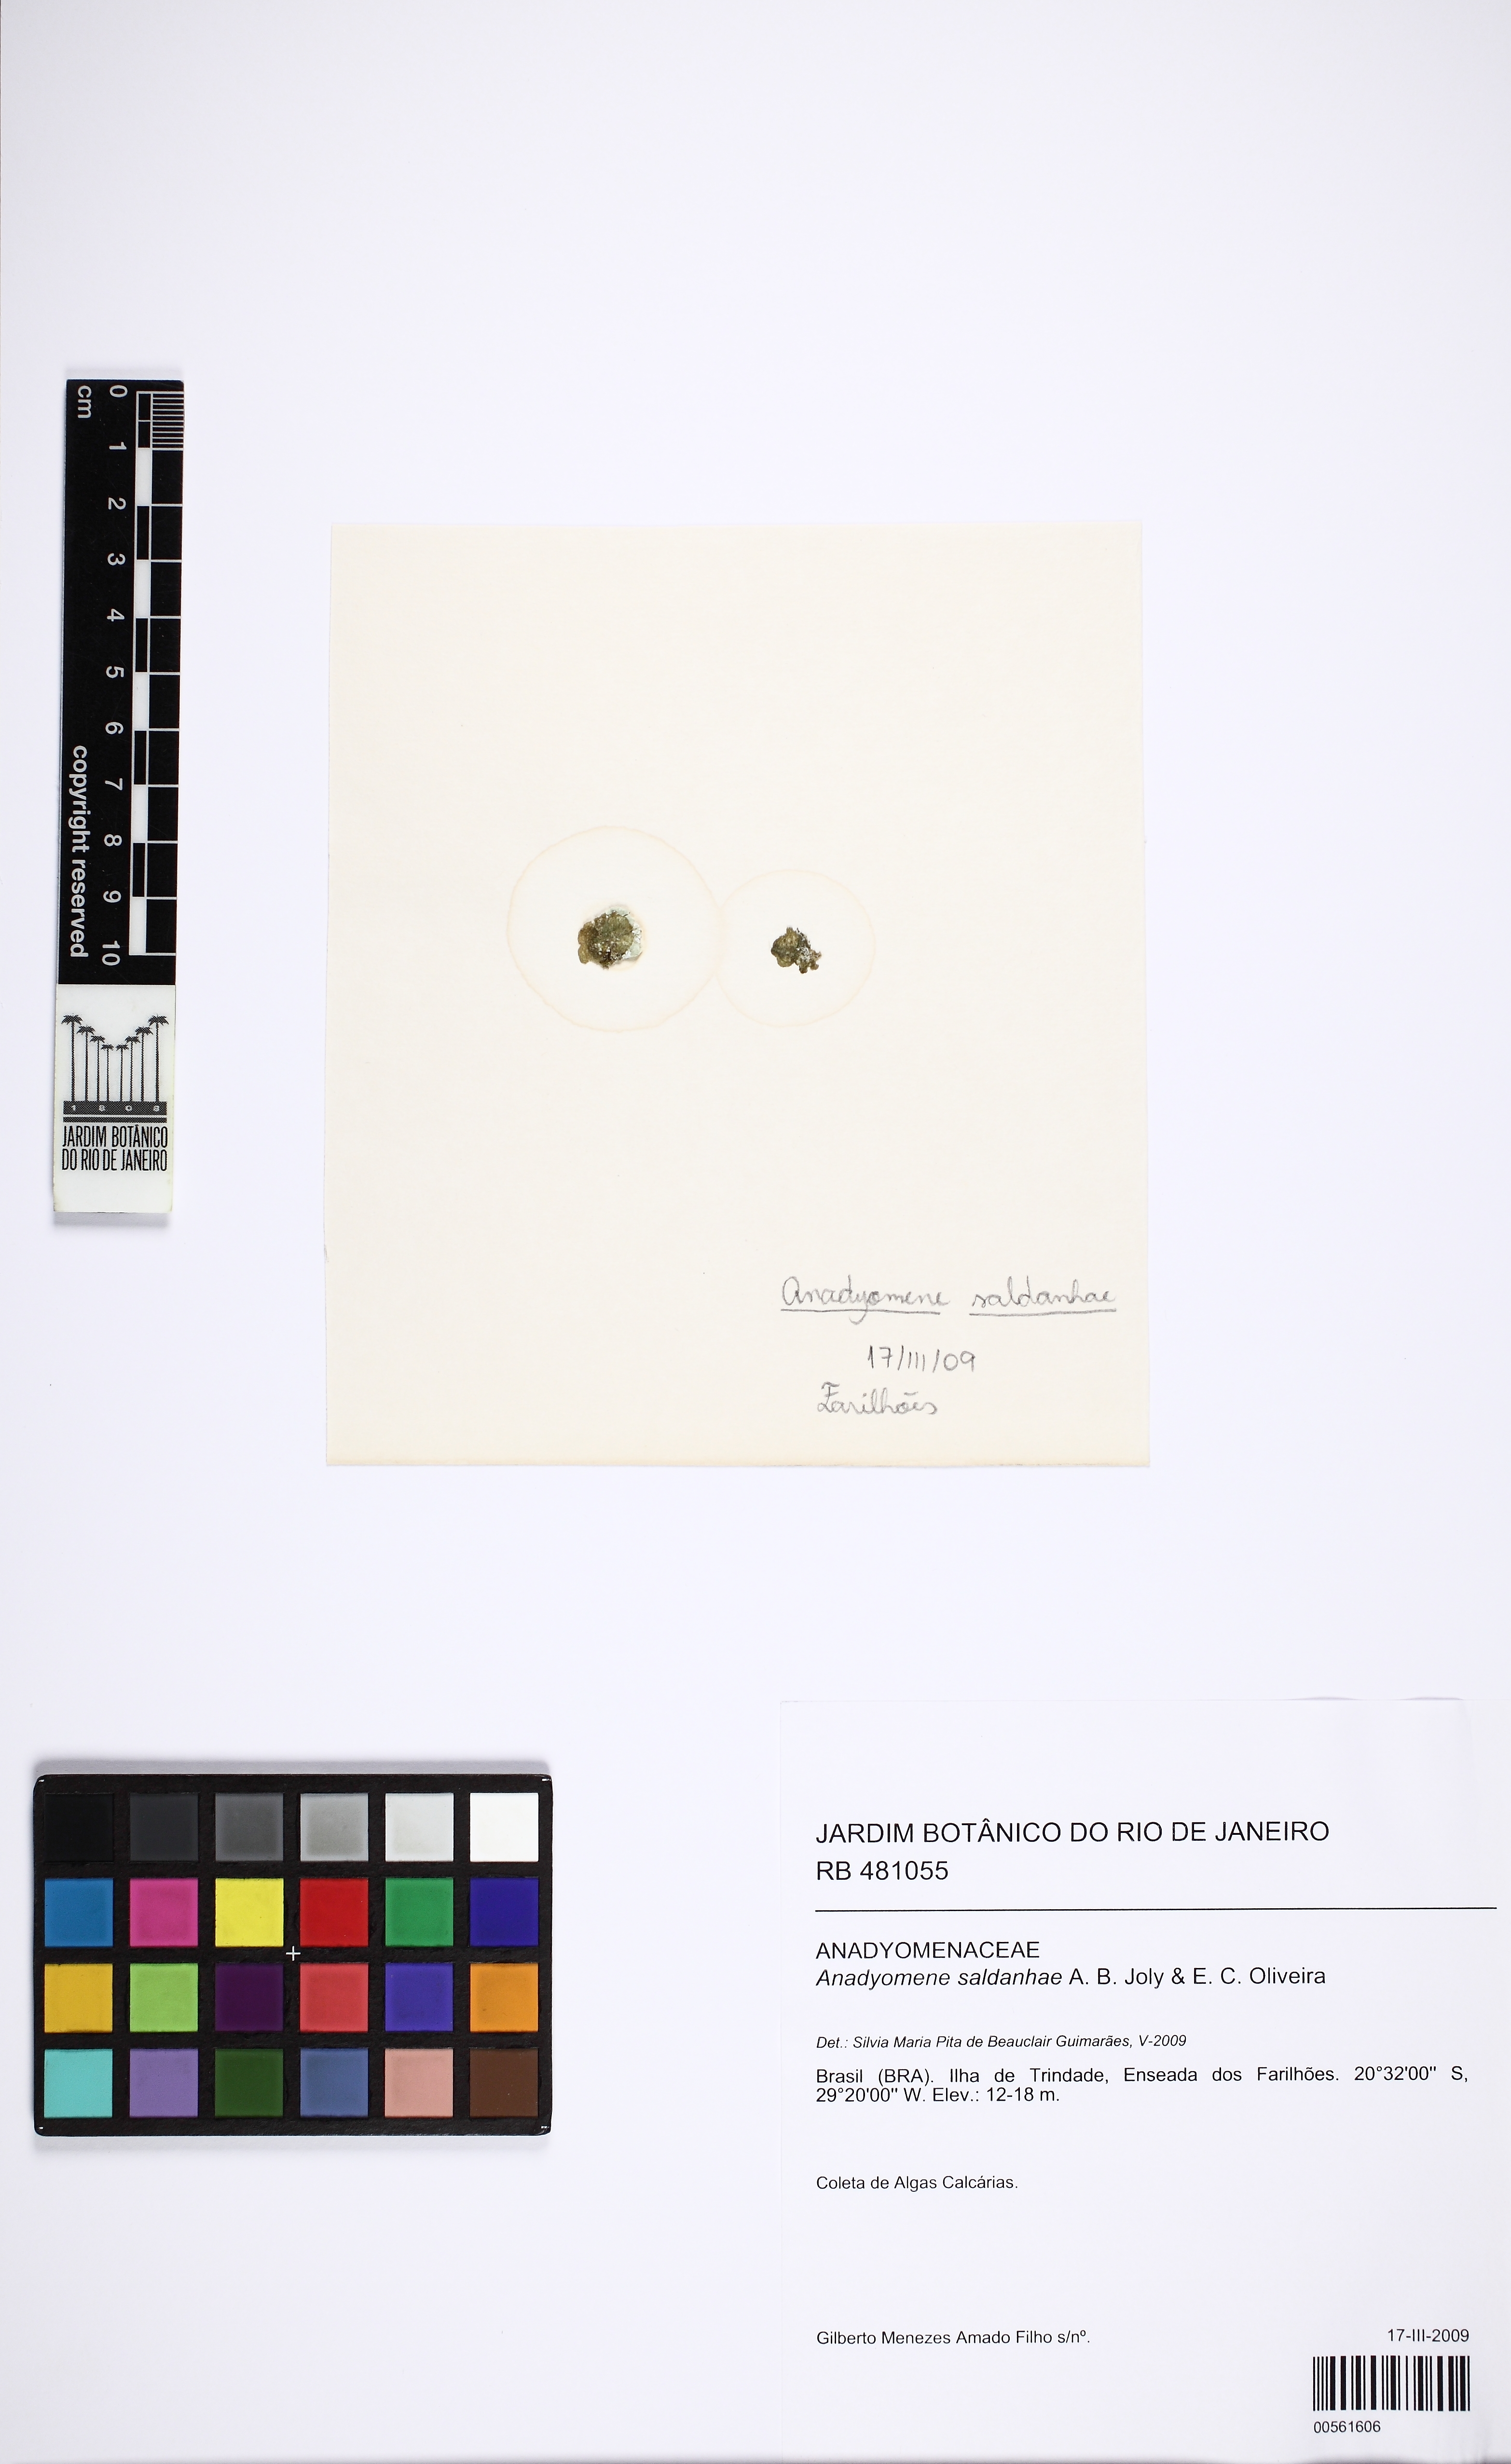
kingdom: Plantae
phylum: Chlorophyta
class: Ulvophyceae
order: Cladophorales
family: Anadyomenaceae
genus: Anadyomene
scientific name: Anadyomene saldanhae
